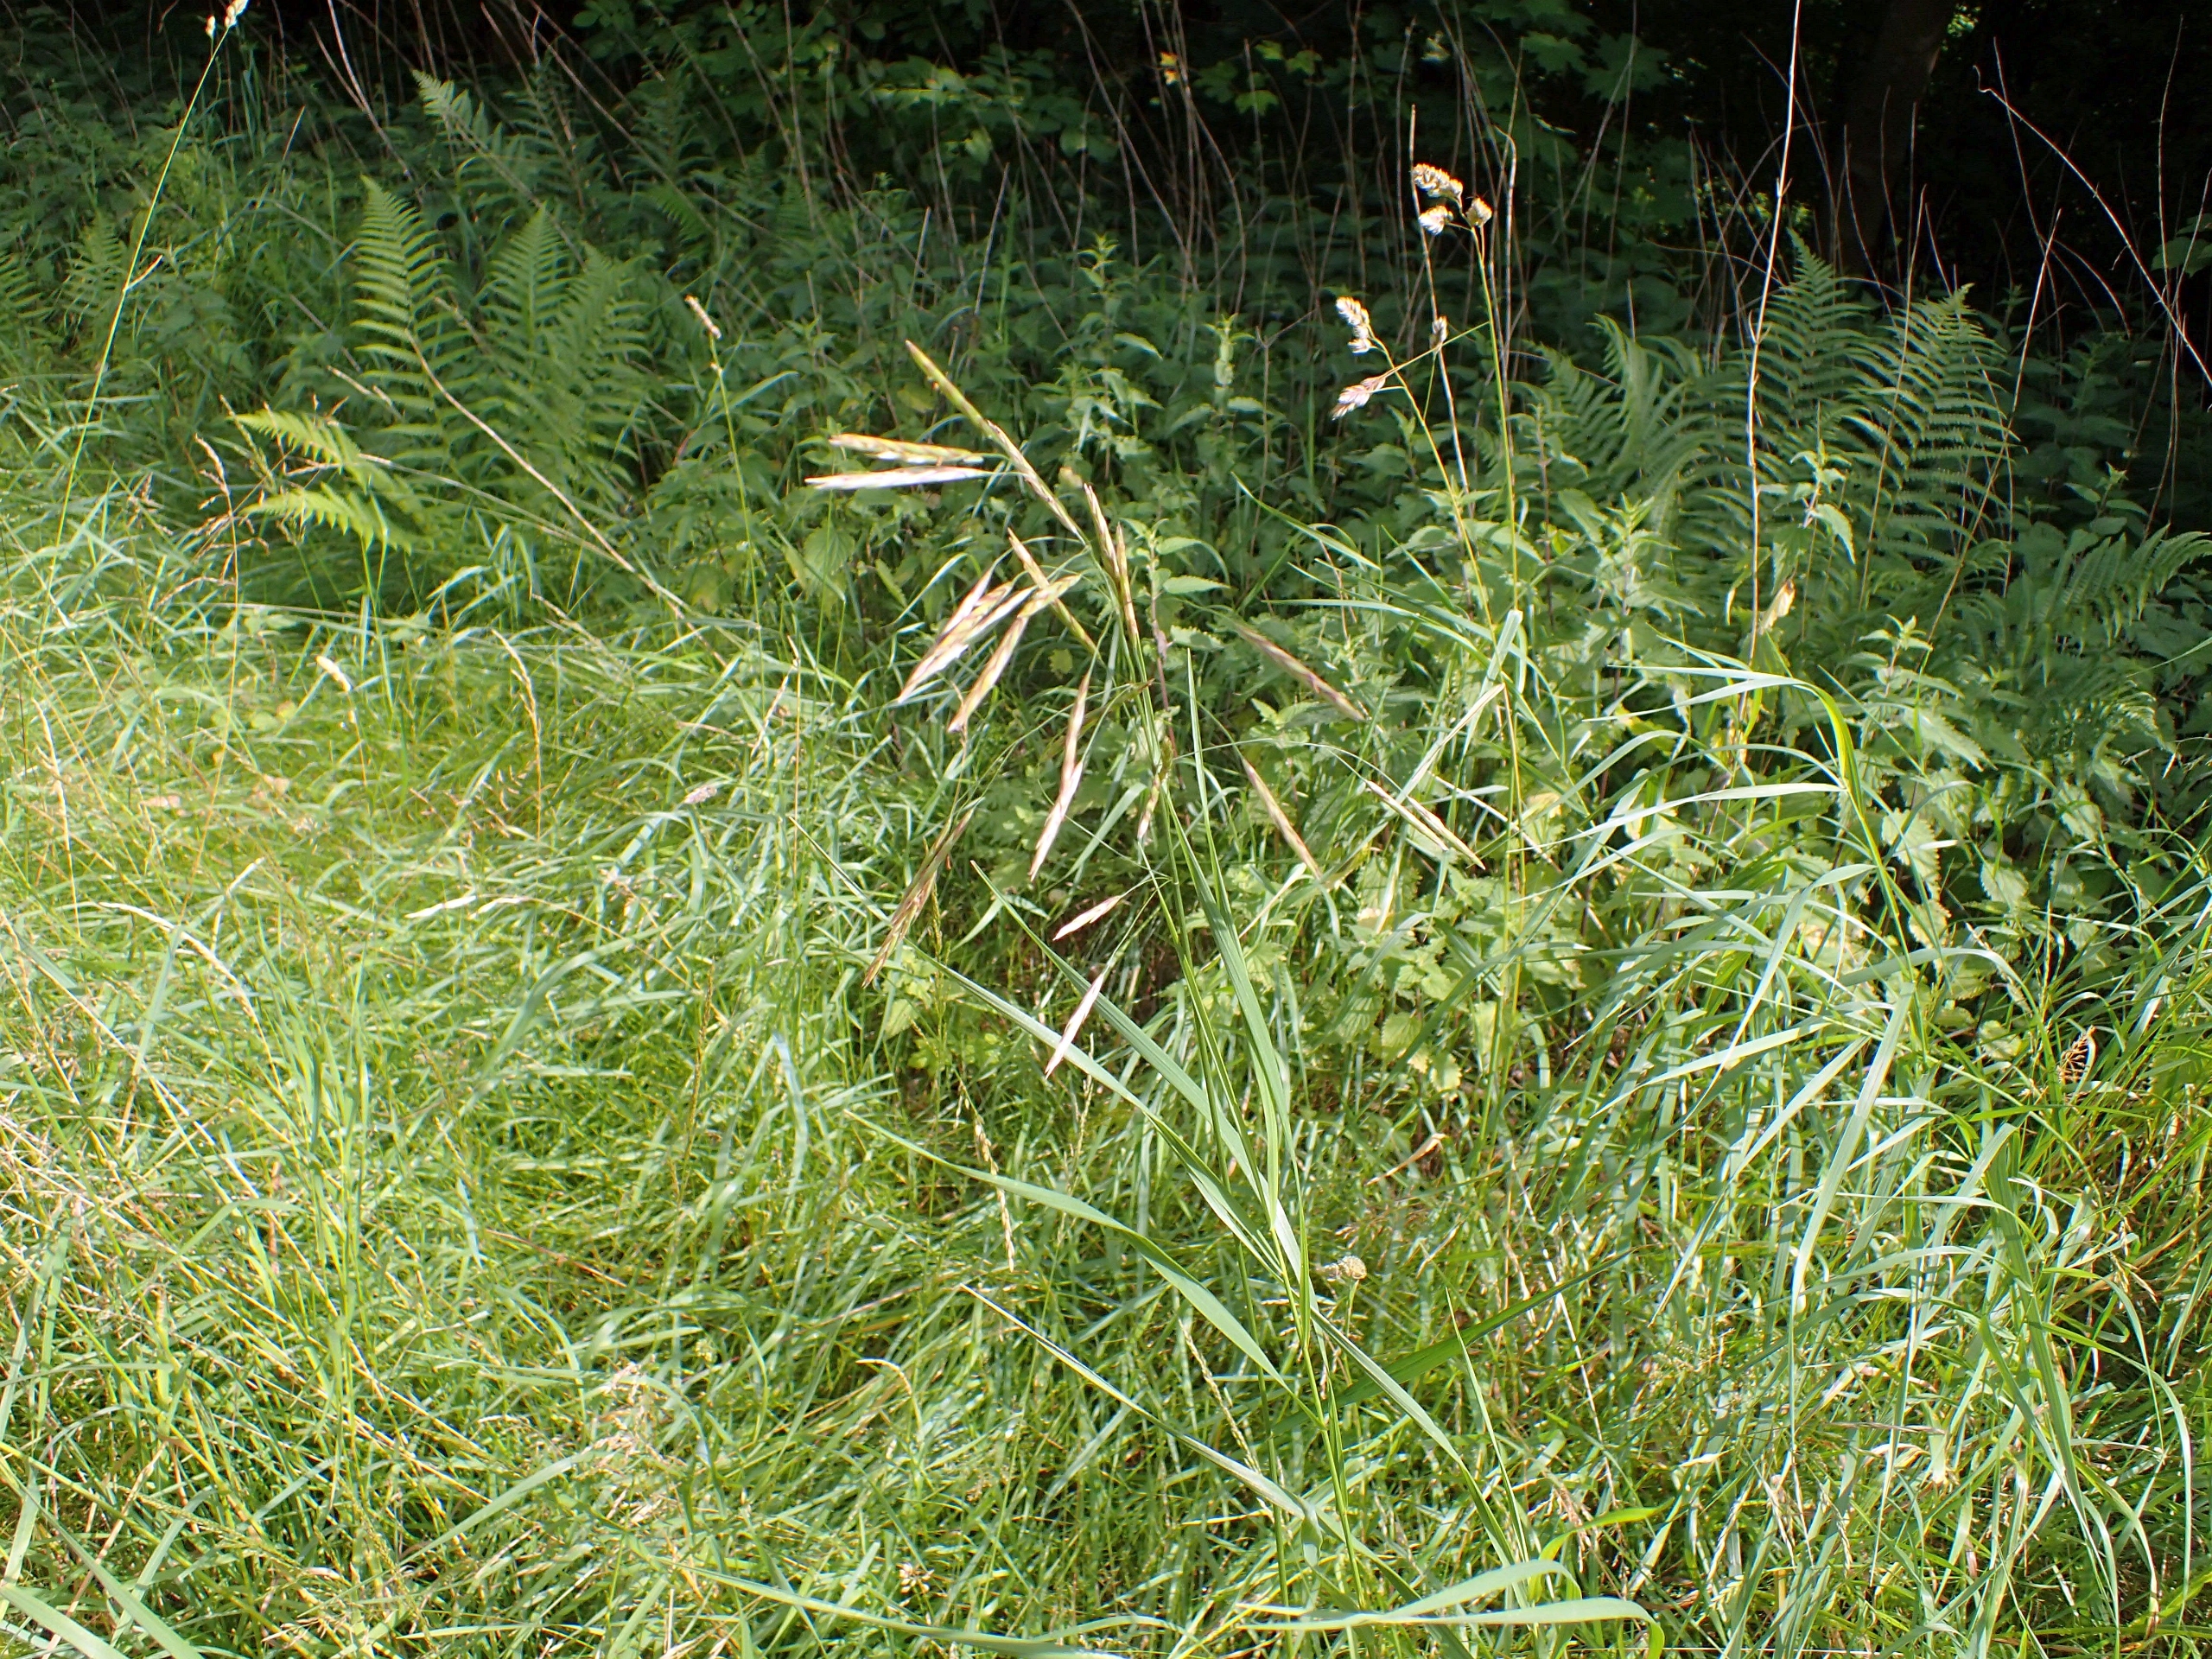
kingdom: Plantae
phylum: Tracheophyta
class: Liliopsida
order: Poales
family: Poaceae
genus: Bromus
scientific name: Bromus inermis
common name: Stakløs hejre
